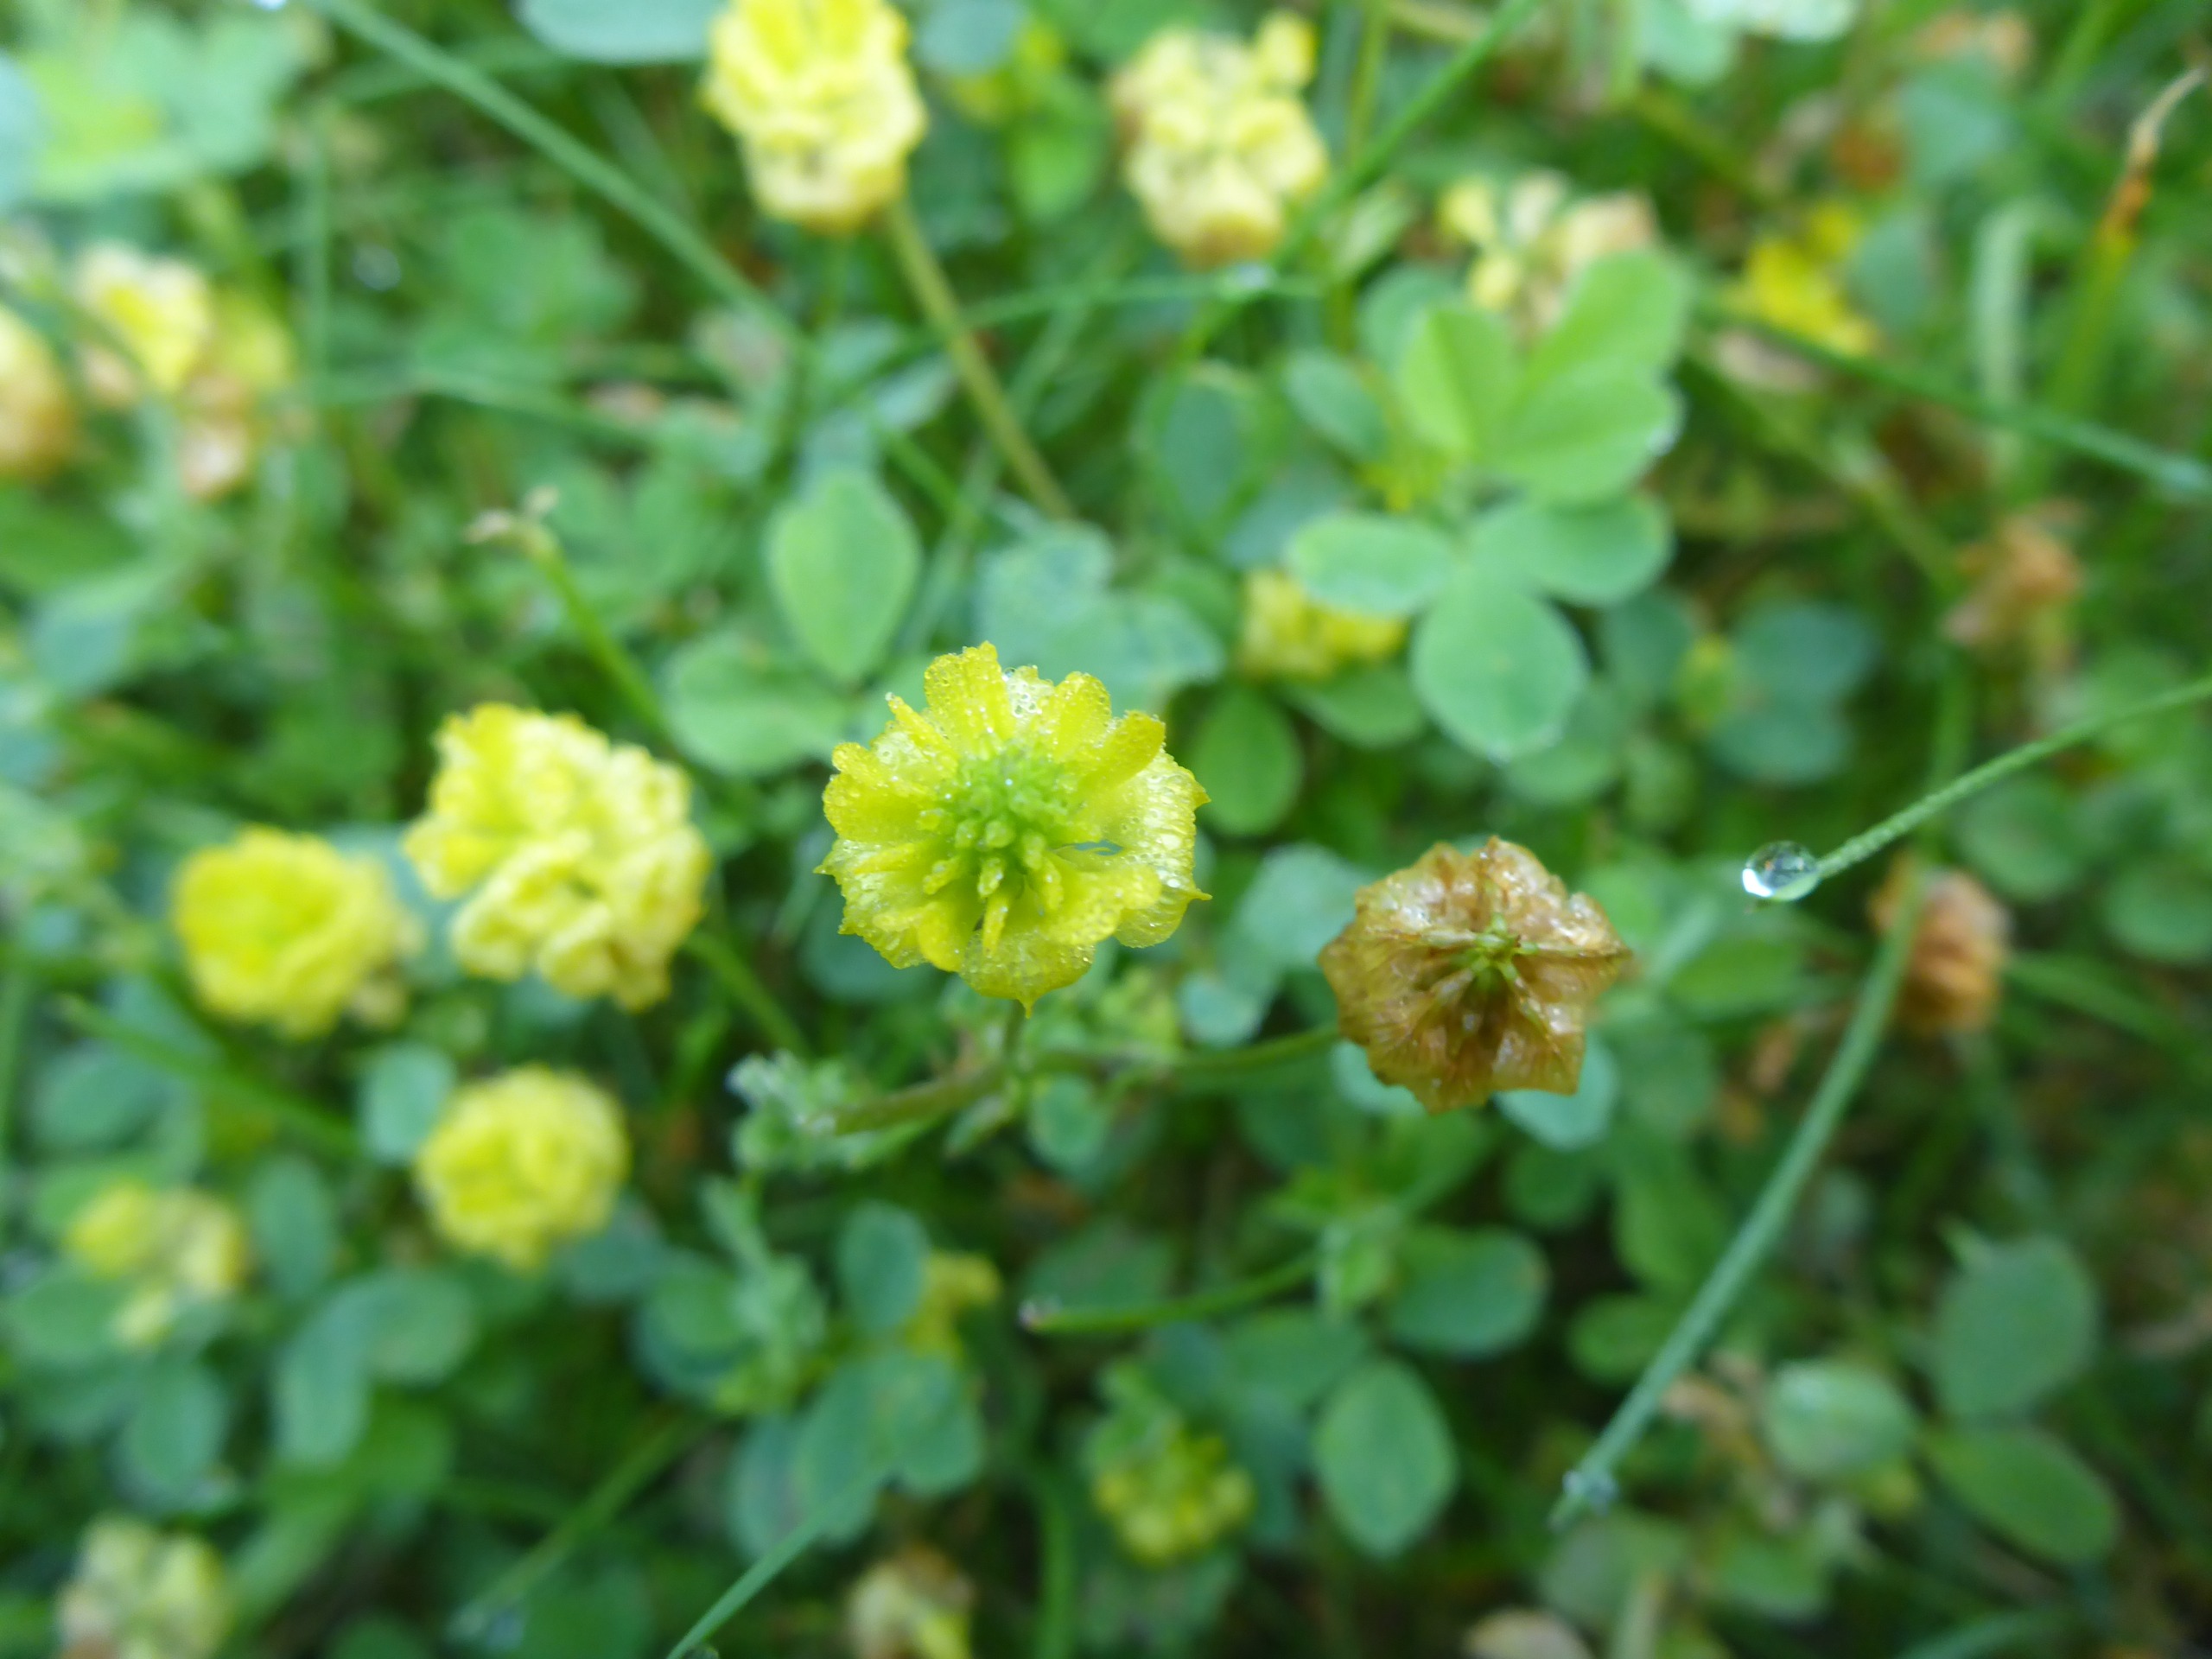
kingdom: Plantae
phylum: Tracheophyta
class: Magnoliopsida
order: Fabales
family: Fabaceae
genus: Trifolium
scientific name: Trifolium campestre
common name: Gul kløver
